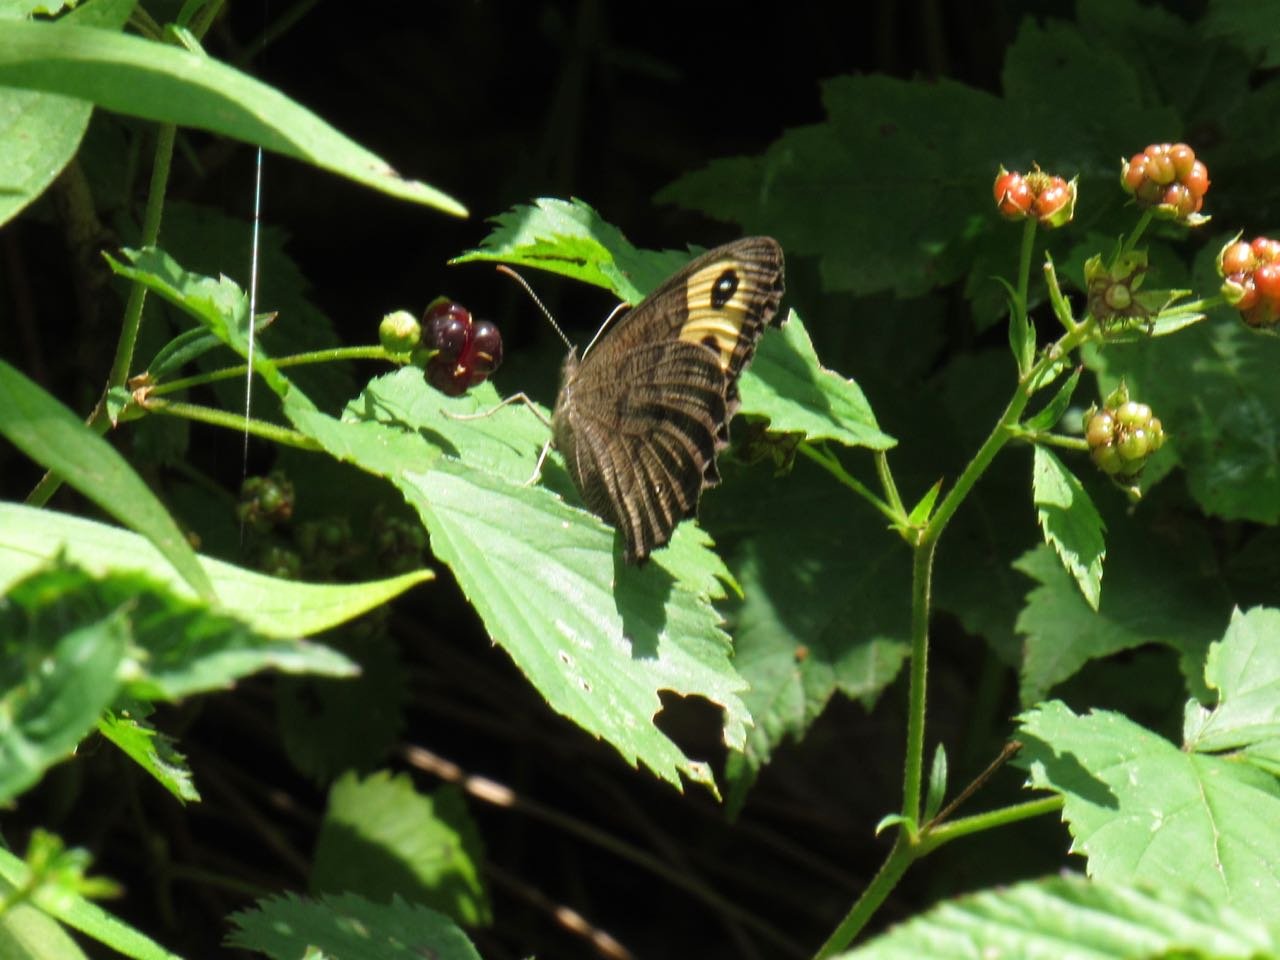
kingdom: Animalia
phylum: Arthropoda
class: Insecta
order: Lepidoptera
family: Nymphalidae
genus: Cercyonis
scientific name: Cercyonis pegala
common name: Common Wood-Nymph
